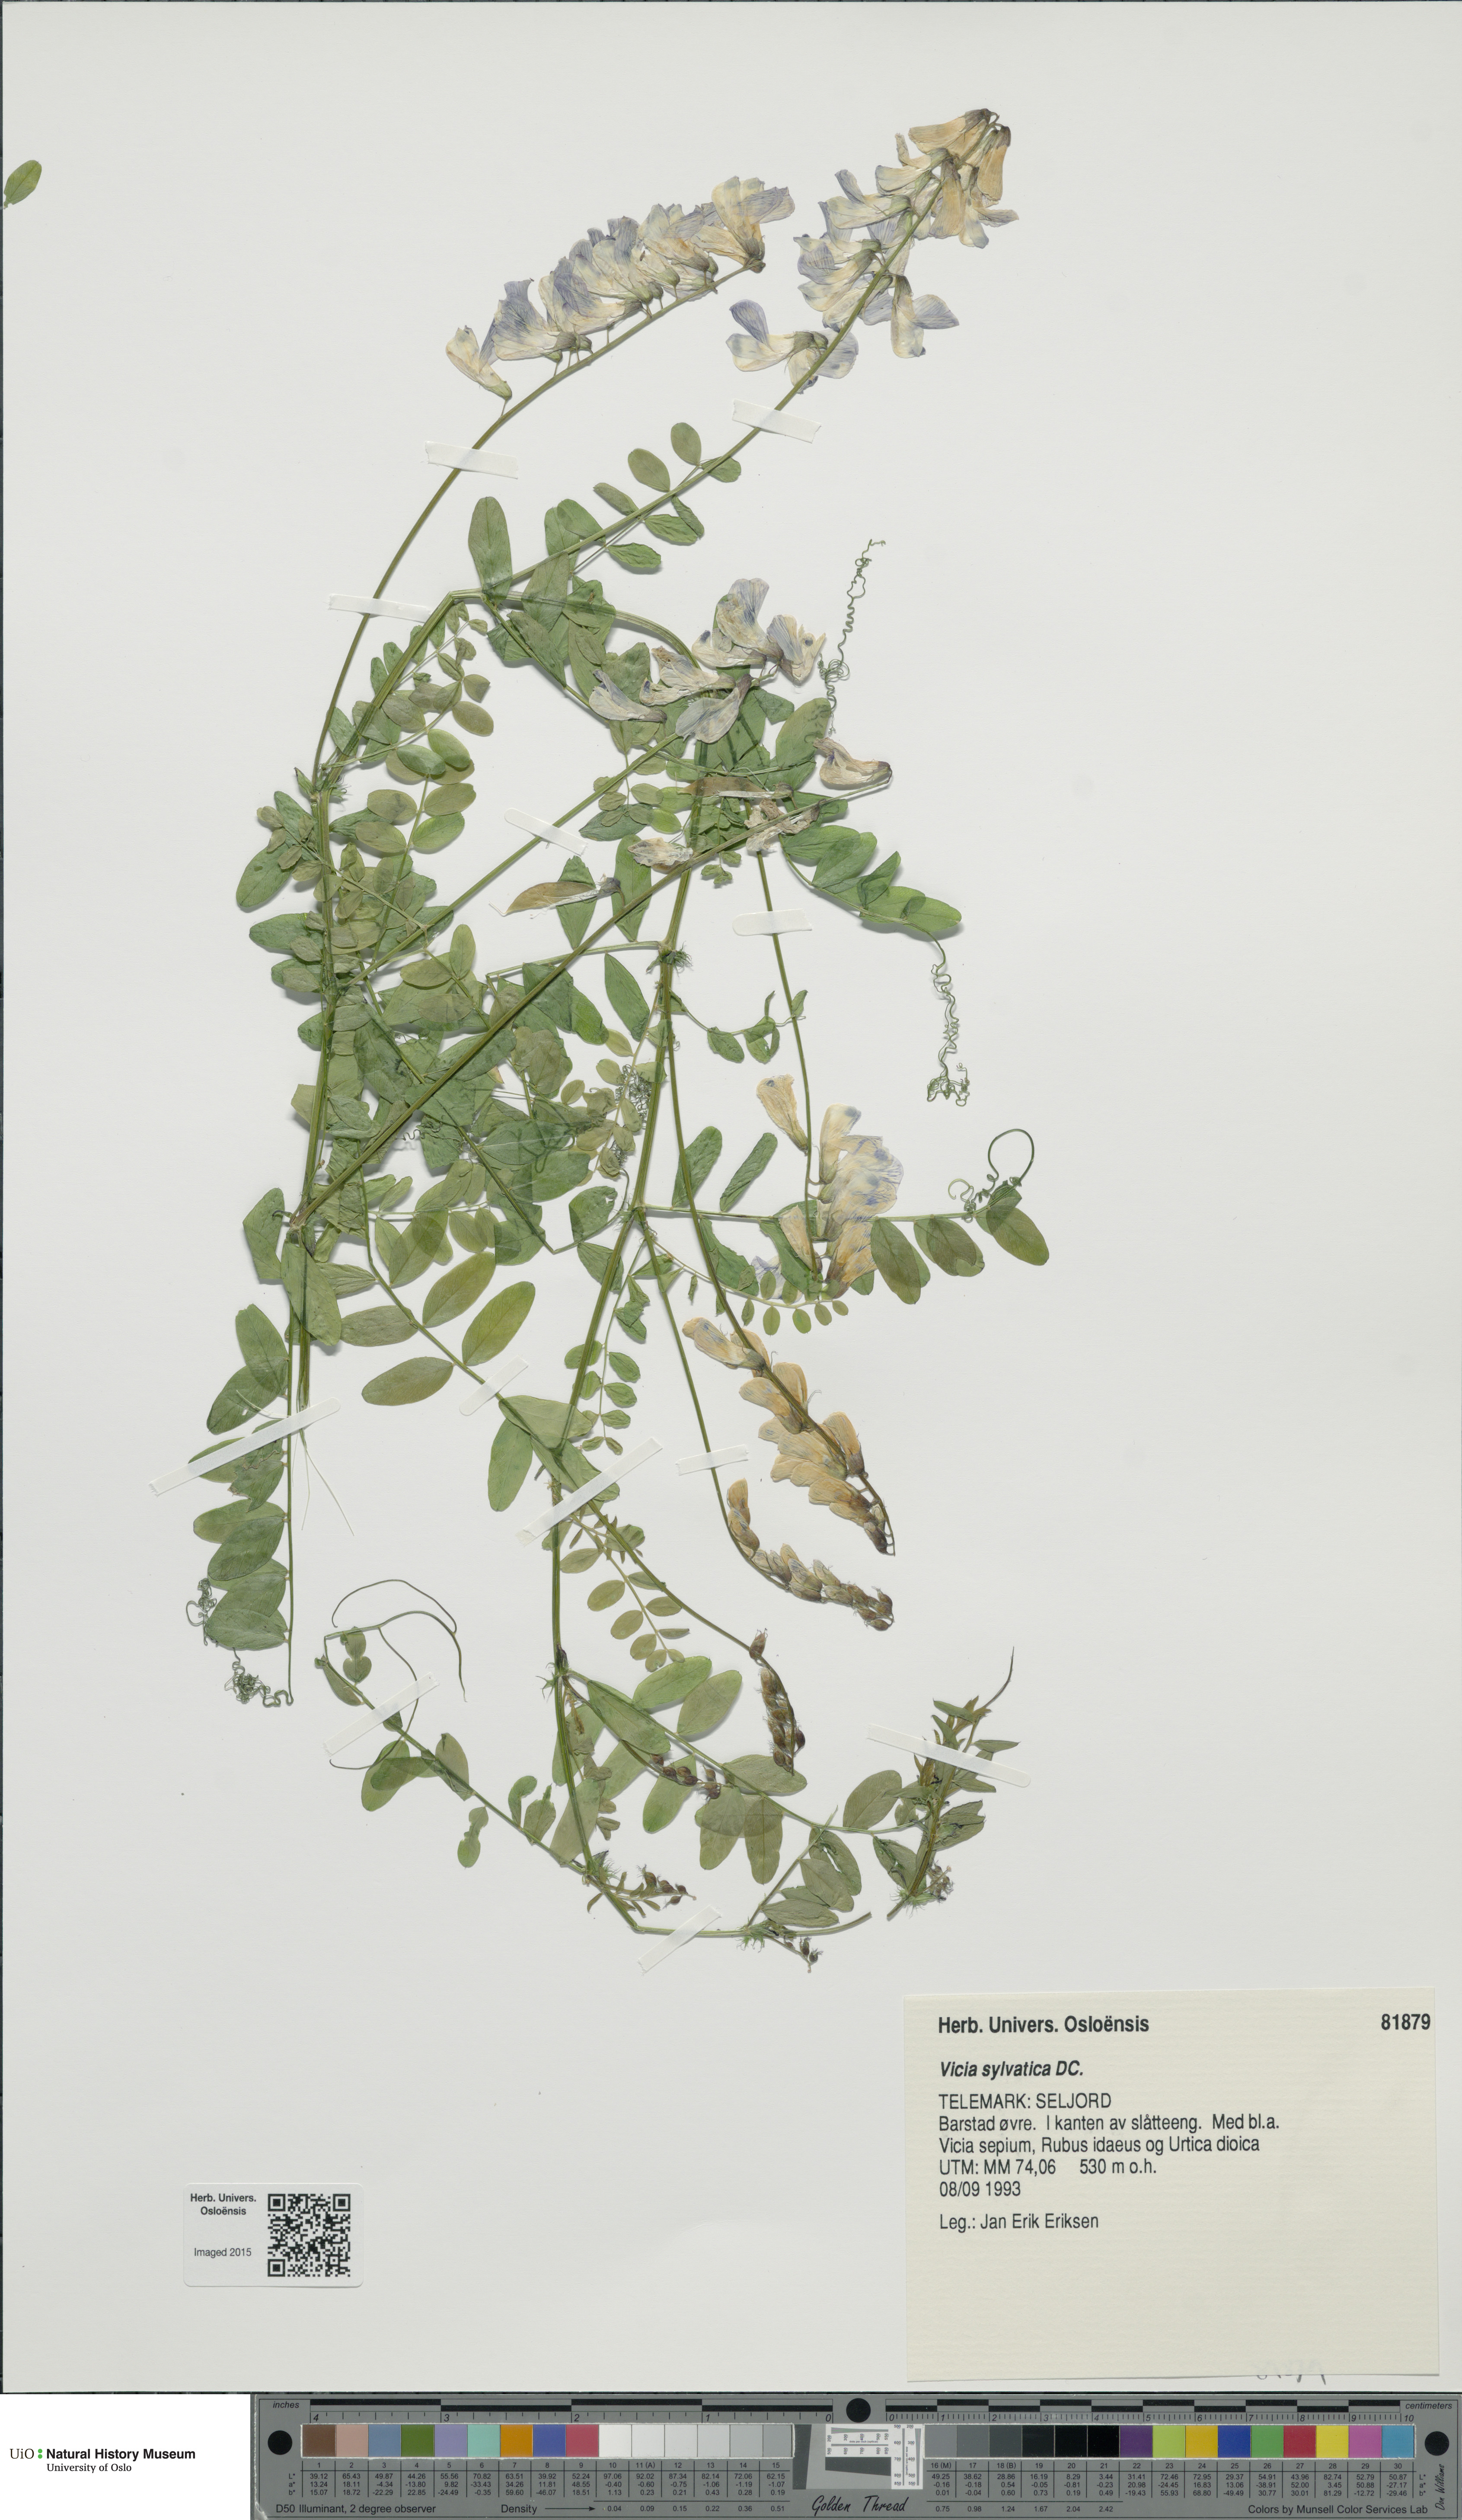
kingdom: Plantae
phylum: Tracheophyta
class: Magnoliopsida
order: Fabales
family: Fabaceae
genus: Vicia
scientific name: Vicia sylvatica
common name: Wood vetch
